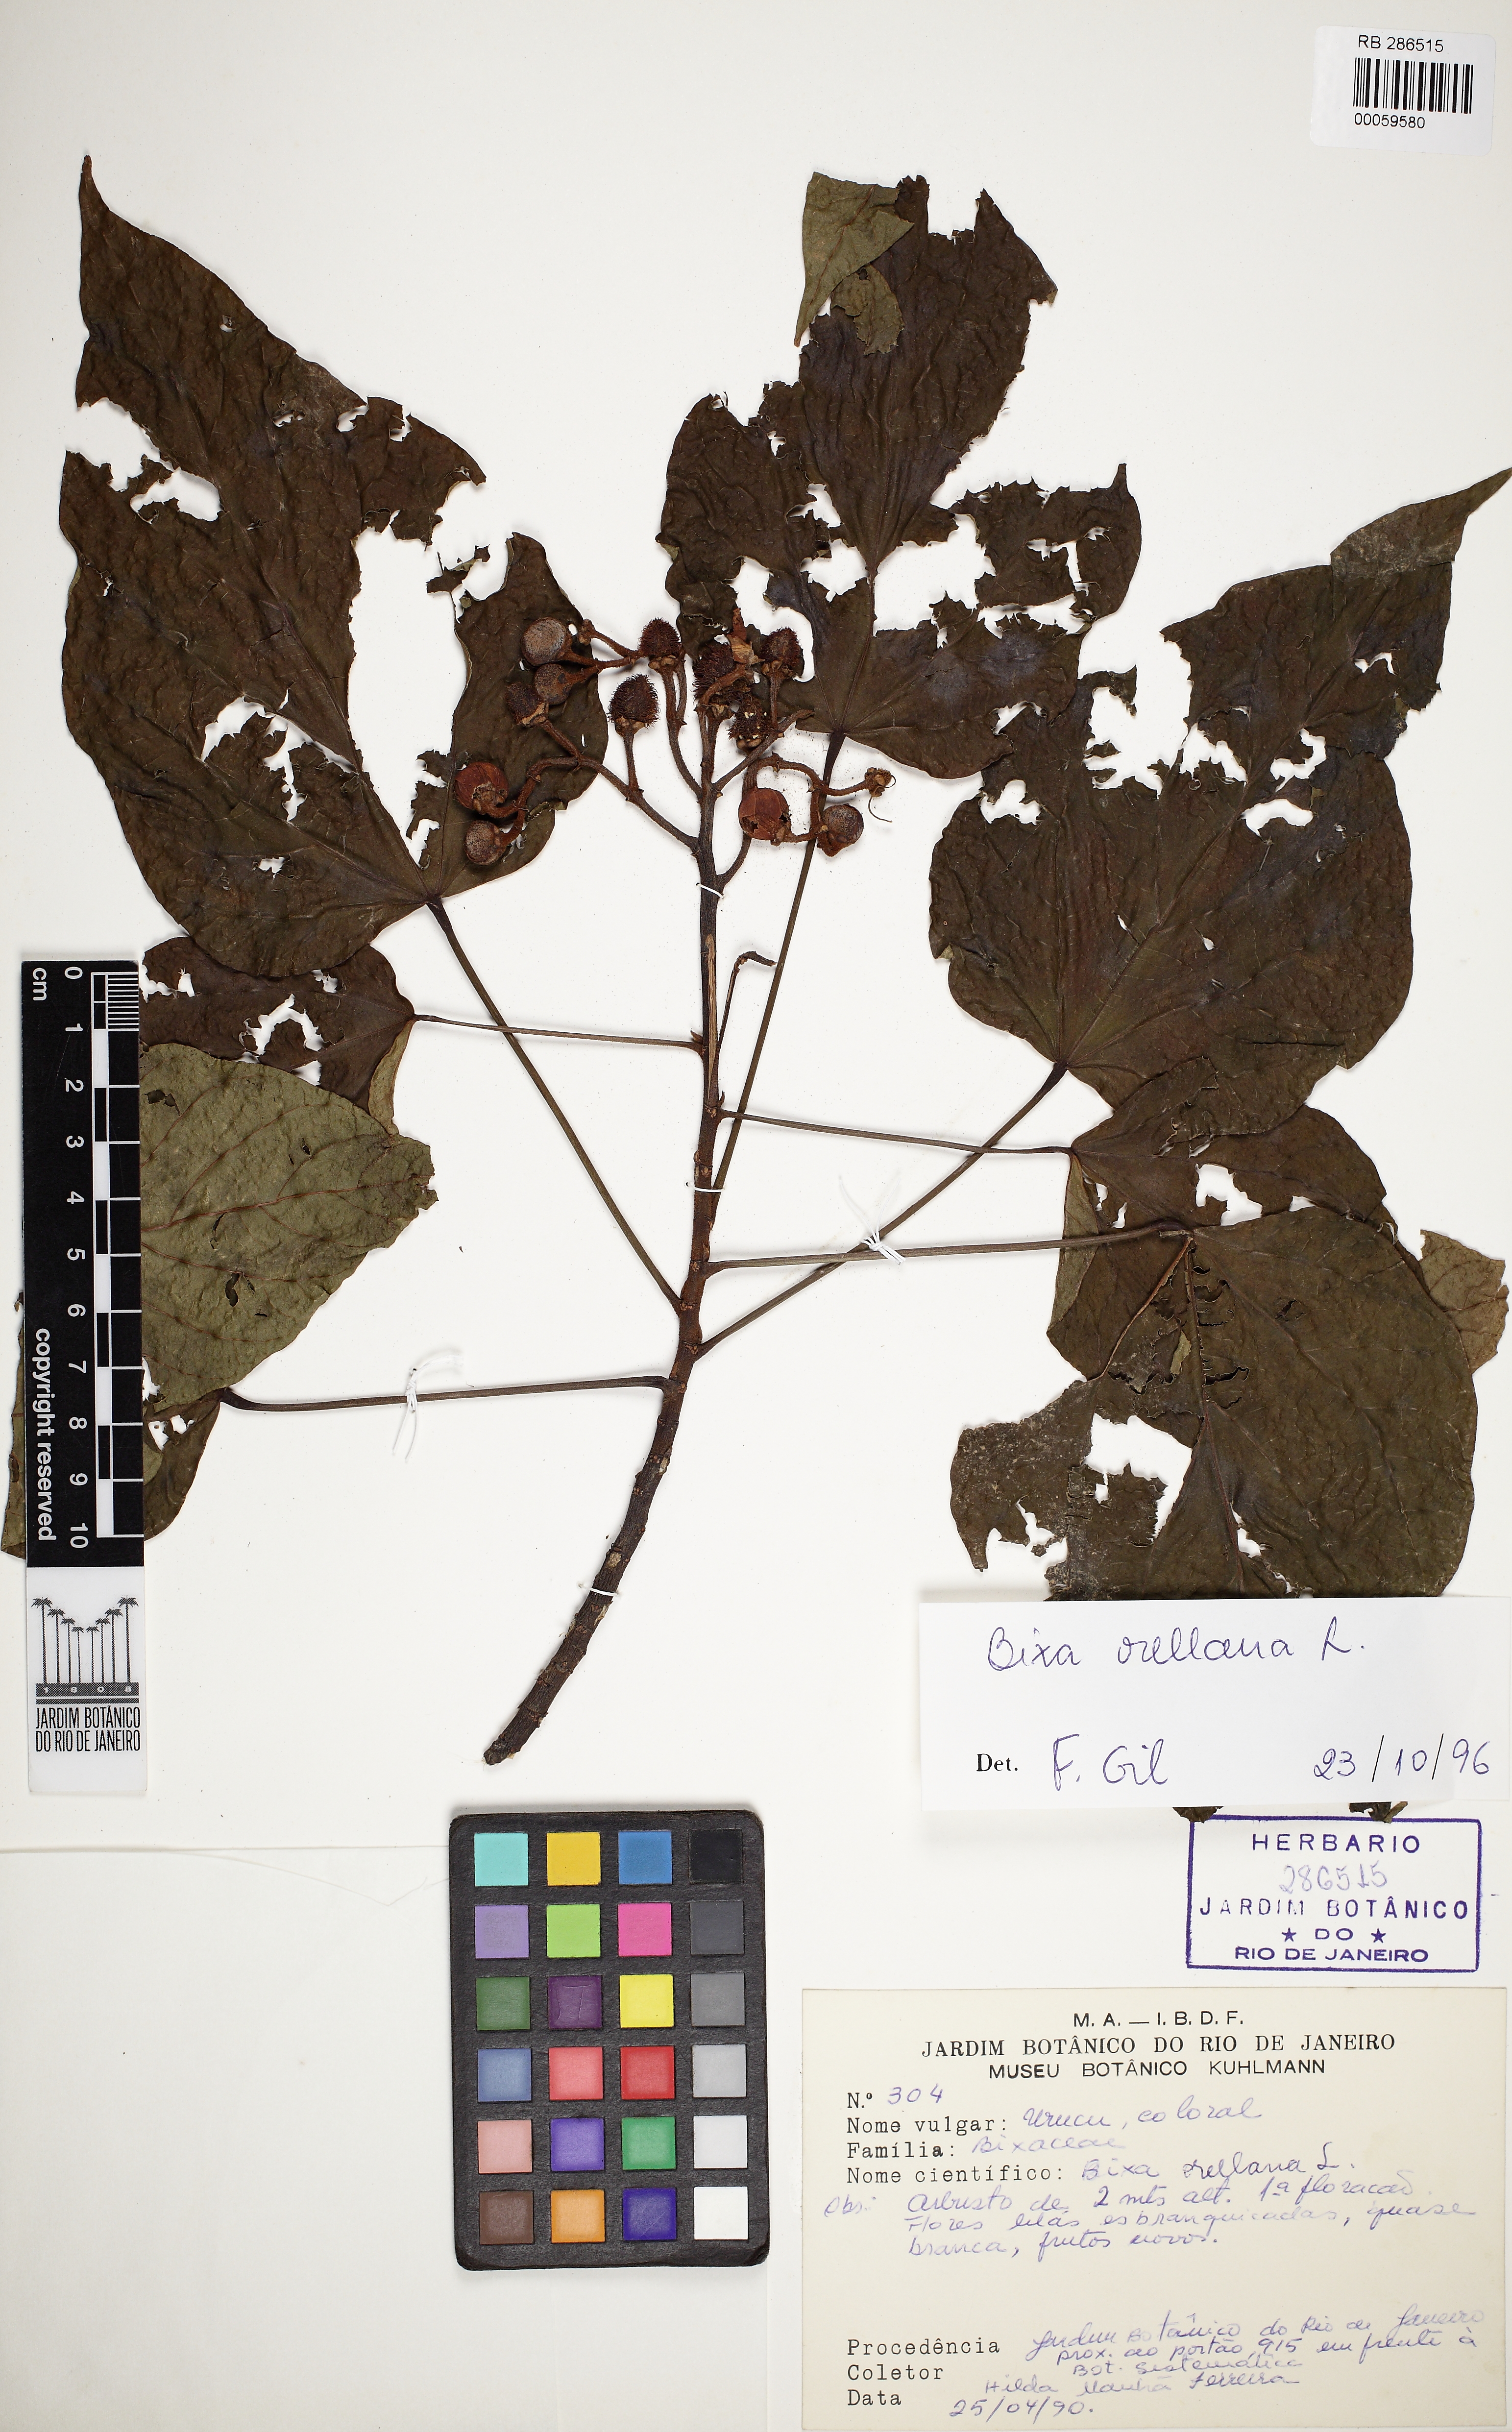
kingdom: Plantae
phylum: Tracheophyta
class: Magnoliopsida
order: Malvales
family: Bixaceae
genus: Bixa
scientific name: Bixa orellana
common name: Lipsticktree
